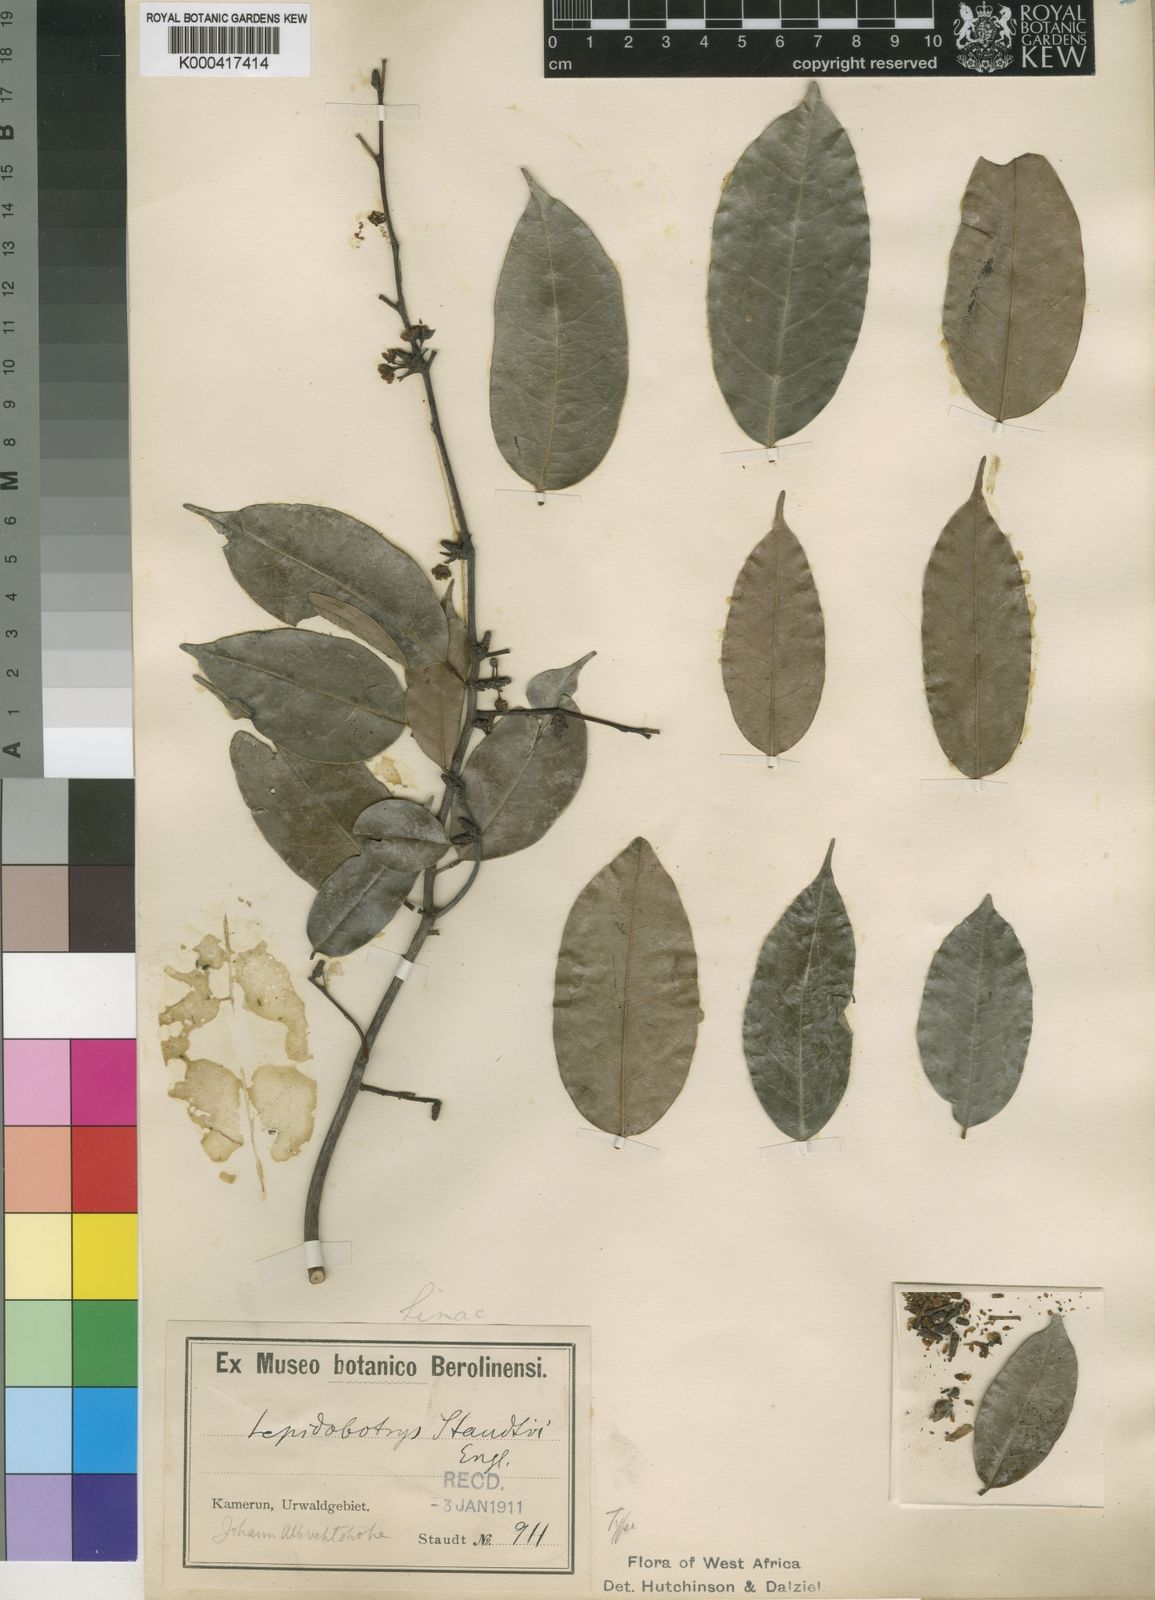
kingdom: Plantae
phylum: Tracheophyta
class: Magnoliopsida
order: Celastrales
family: Lepidobotryaceae
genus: Lepidobotrys
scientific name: Lepidobotrys staudtii
